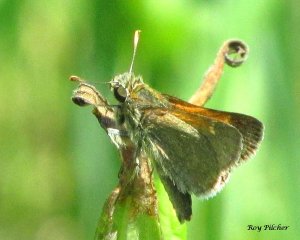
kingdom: Animalia
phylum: Arthropoda
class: Insecta
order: Lepidoptera
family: Hesperiidae
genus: Polites
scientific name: Polites themistocles
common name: Tawny-edged Skipper
